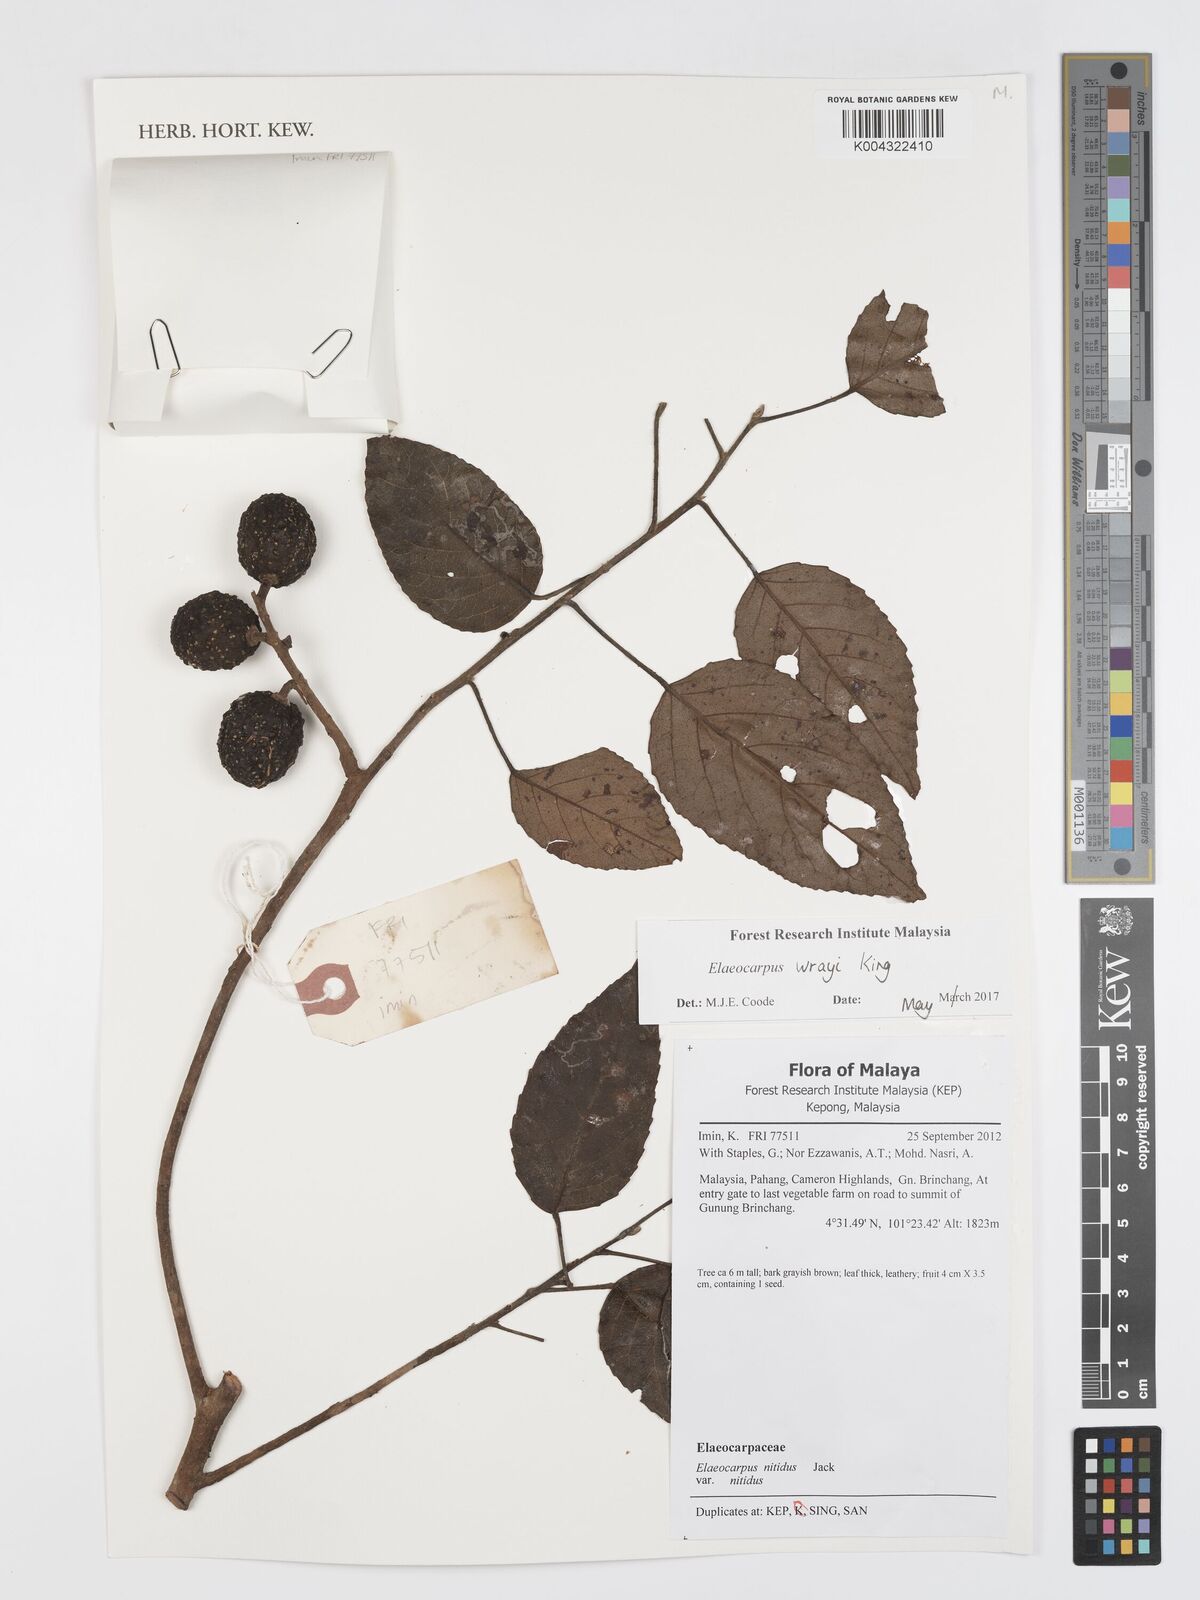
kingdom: Plantae
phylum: Tracheophyta
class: Magnoliopsida
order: Oxalidales
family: Elaeocarpaceae
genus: Elaeocarpus
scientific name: Elaeocarpus nitidus
